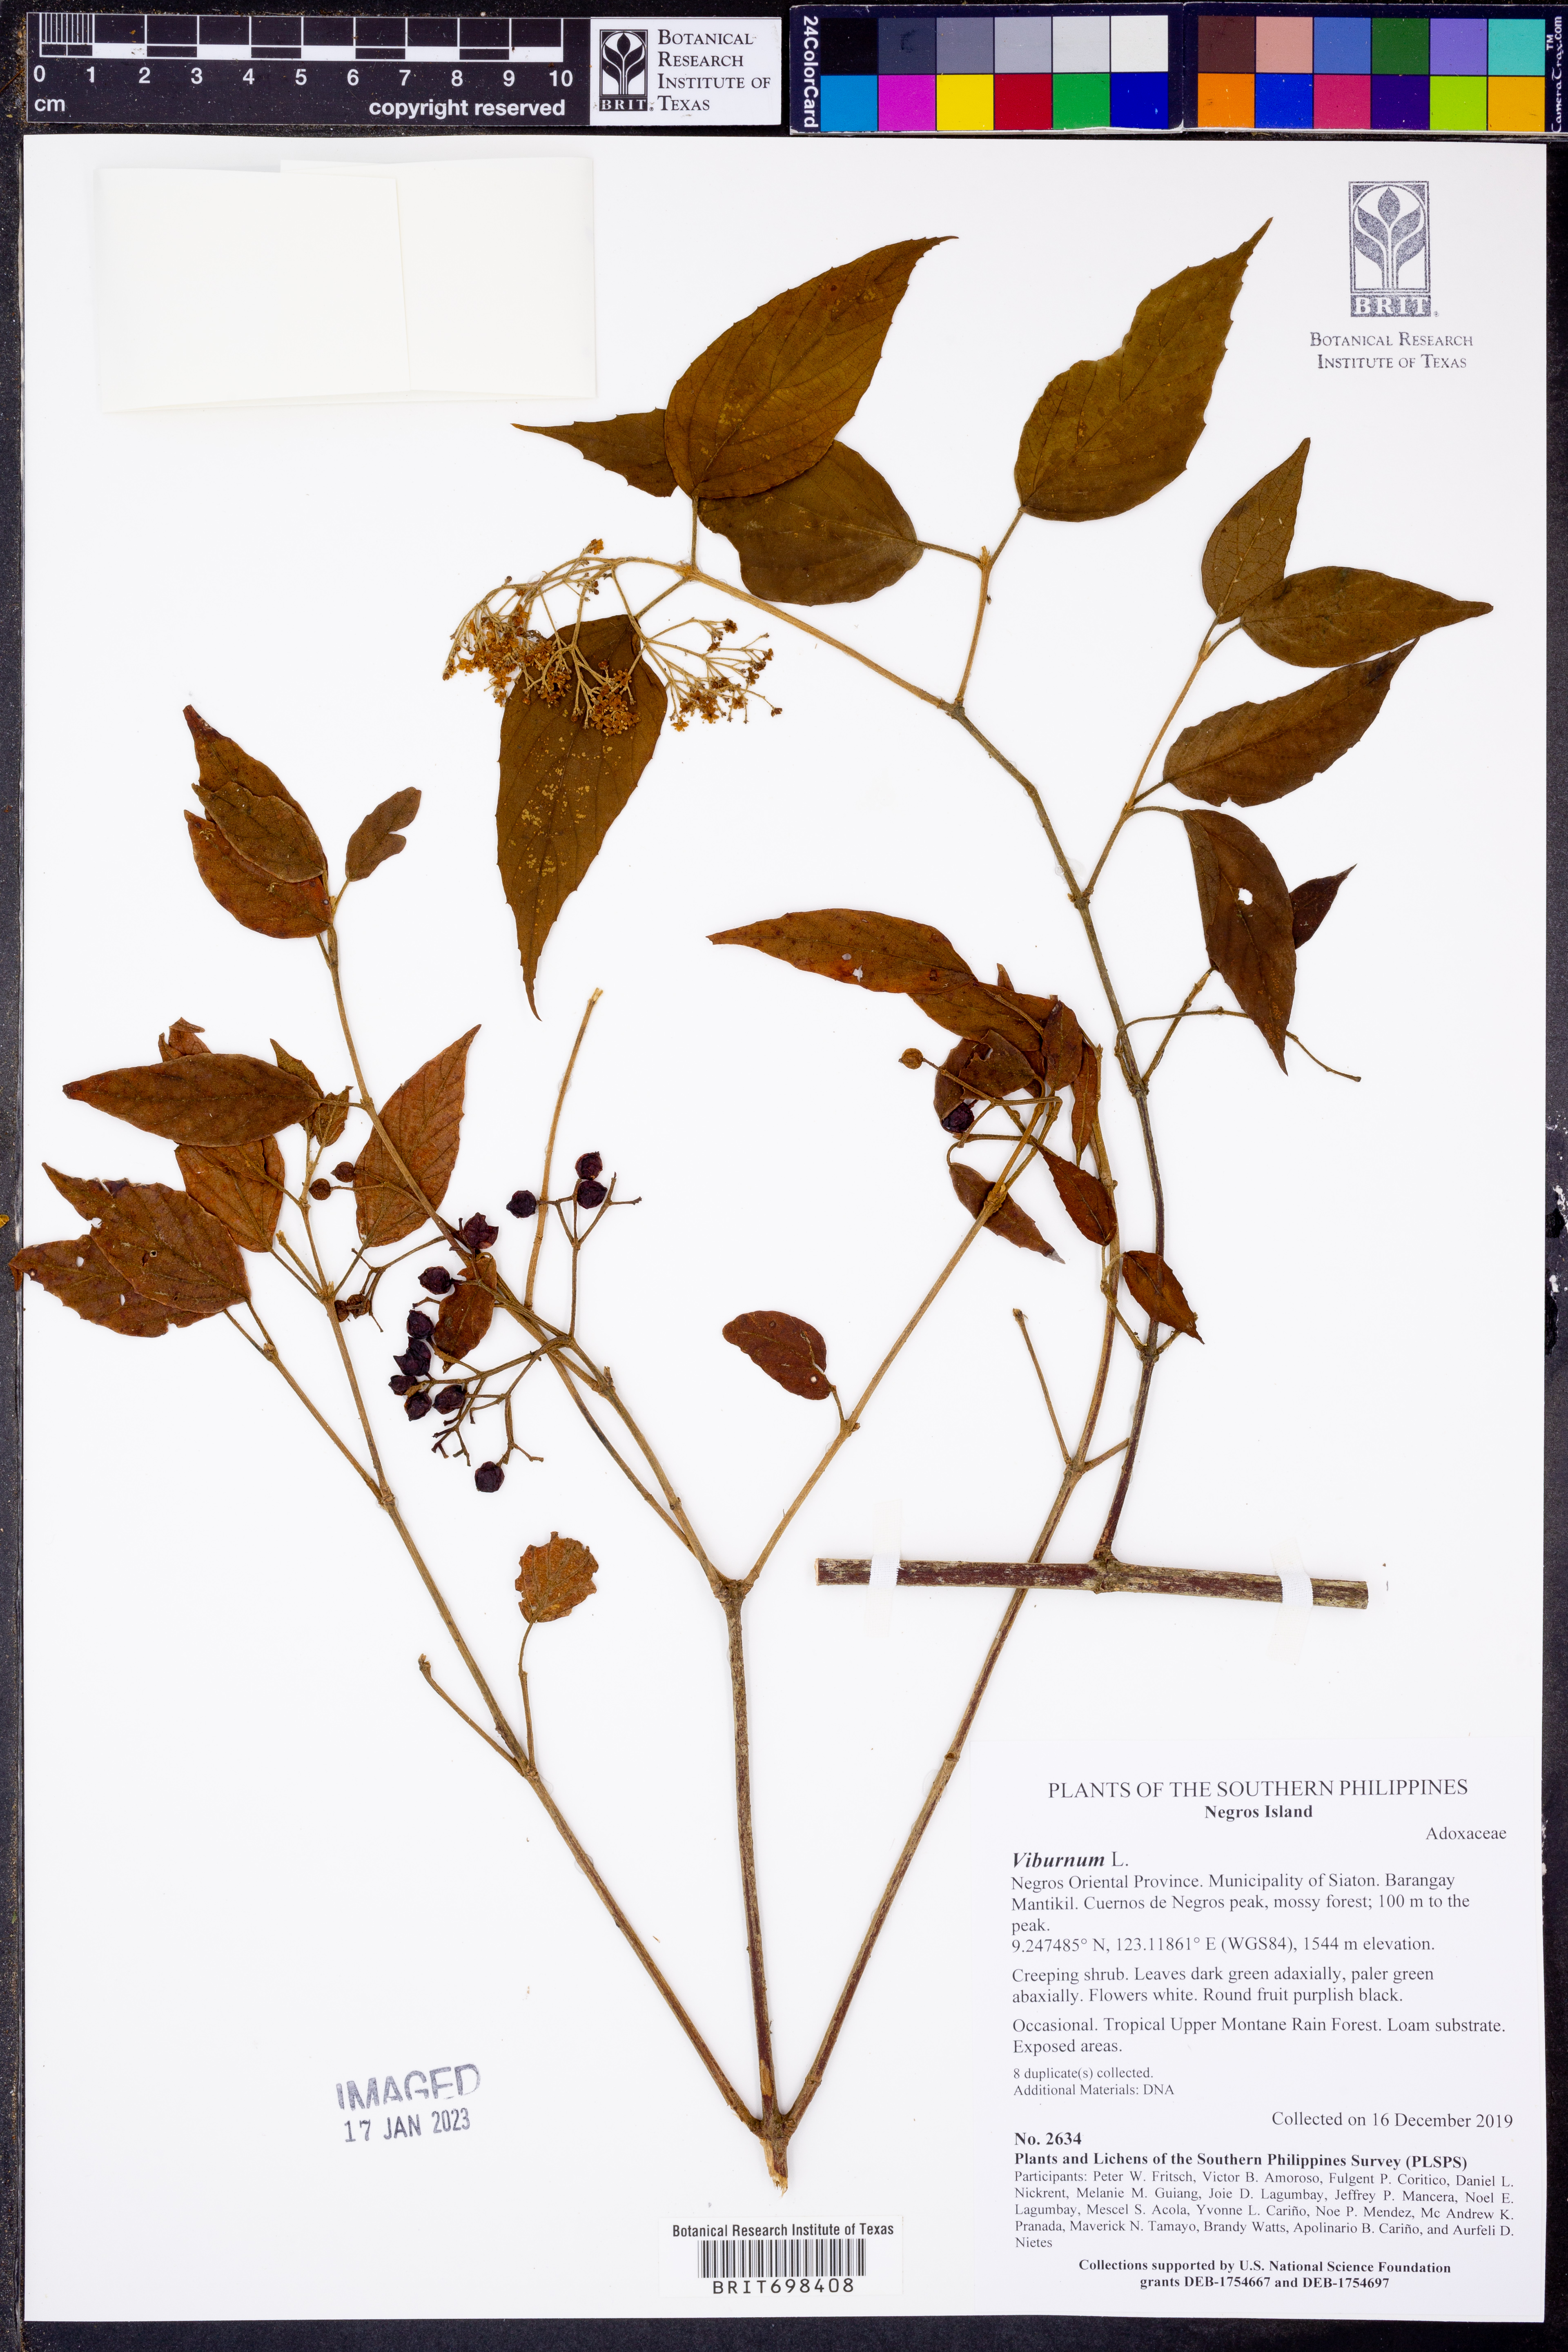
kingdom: Plantae
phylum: Tracheophyta
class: Magnoliopsida
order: Dipsacales
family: Viburnaceae
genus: Viburnum
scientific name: Viburnum
